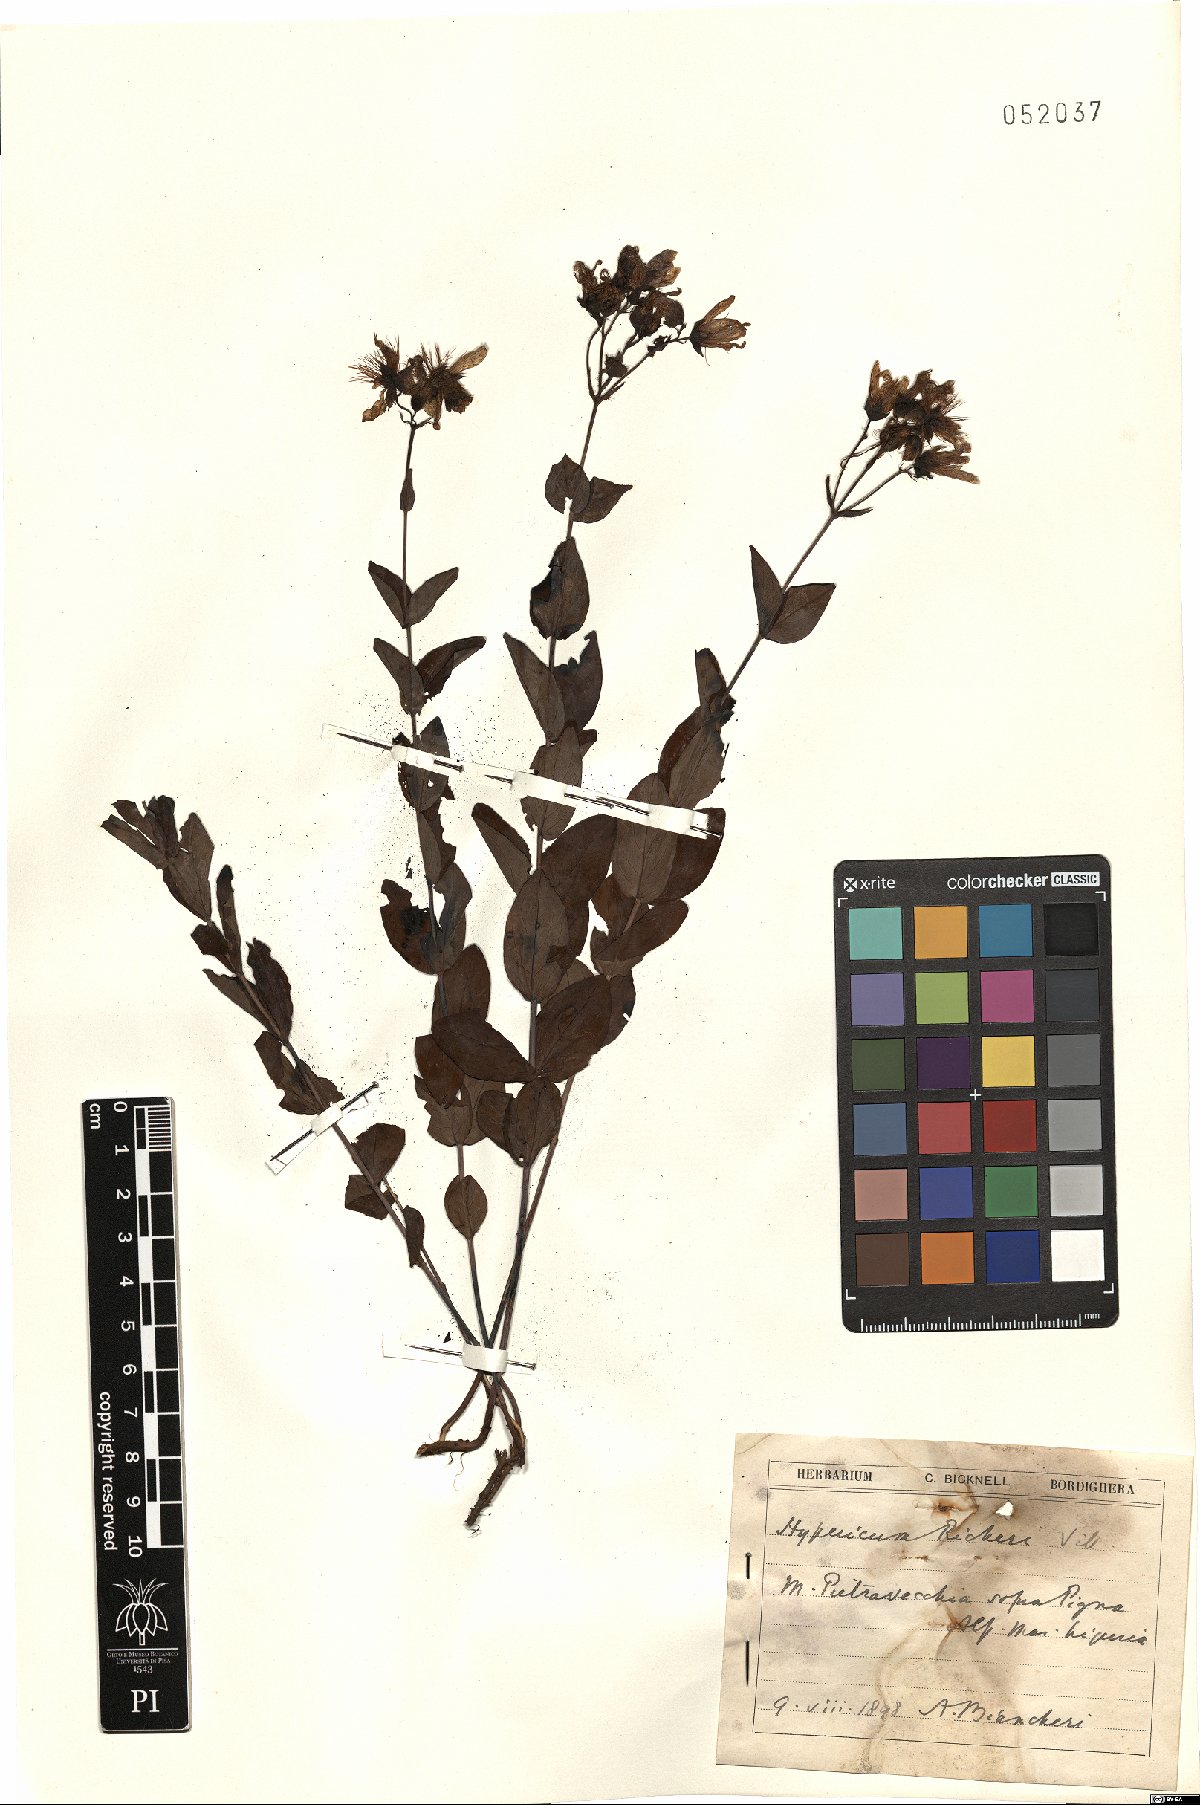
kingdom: Plantae
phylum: Tracheophyta
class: Magnoliopsida
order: Malpighiales
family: Hypericaceae
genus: Hypericum
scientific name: Hypericum richeri
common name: Alpine st john's-wort
